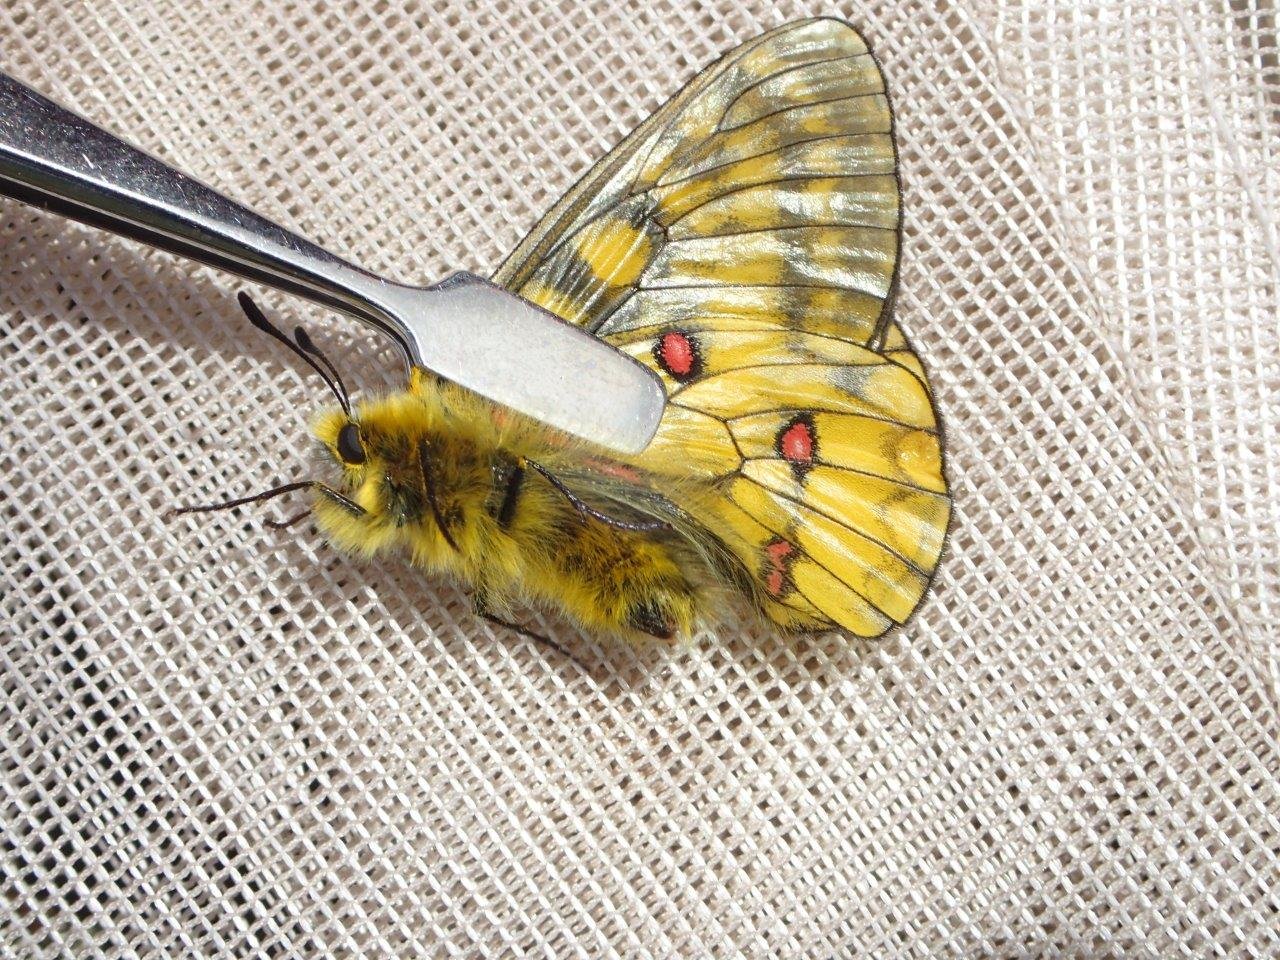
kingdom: Animalia
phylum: Arthropoda
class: Insecta
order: Lepidoptera
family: Papilionidae
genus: Parnassius
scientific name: Parnassius eversmanni
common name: Eversmann's Parnassian
